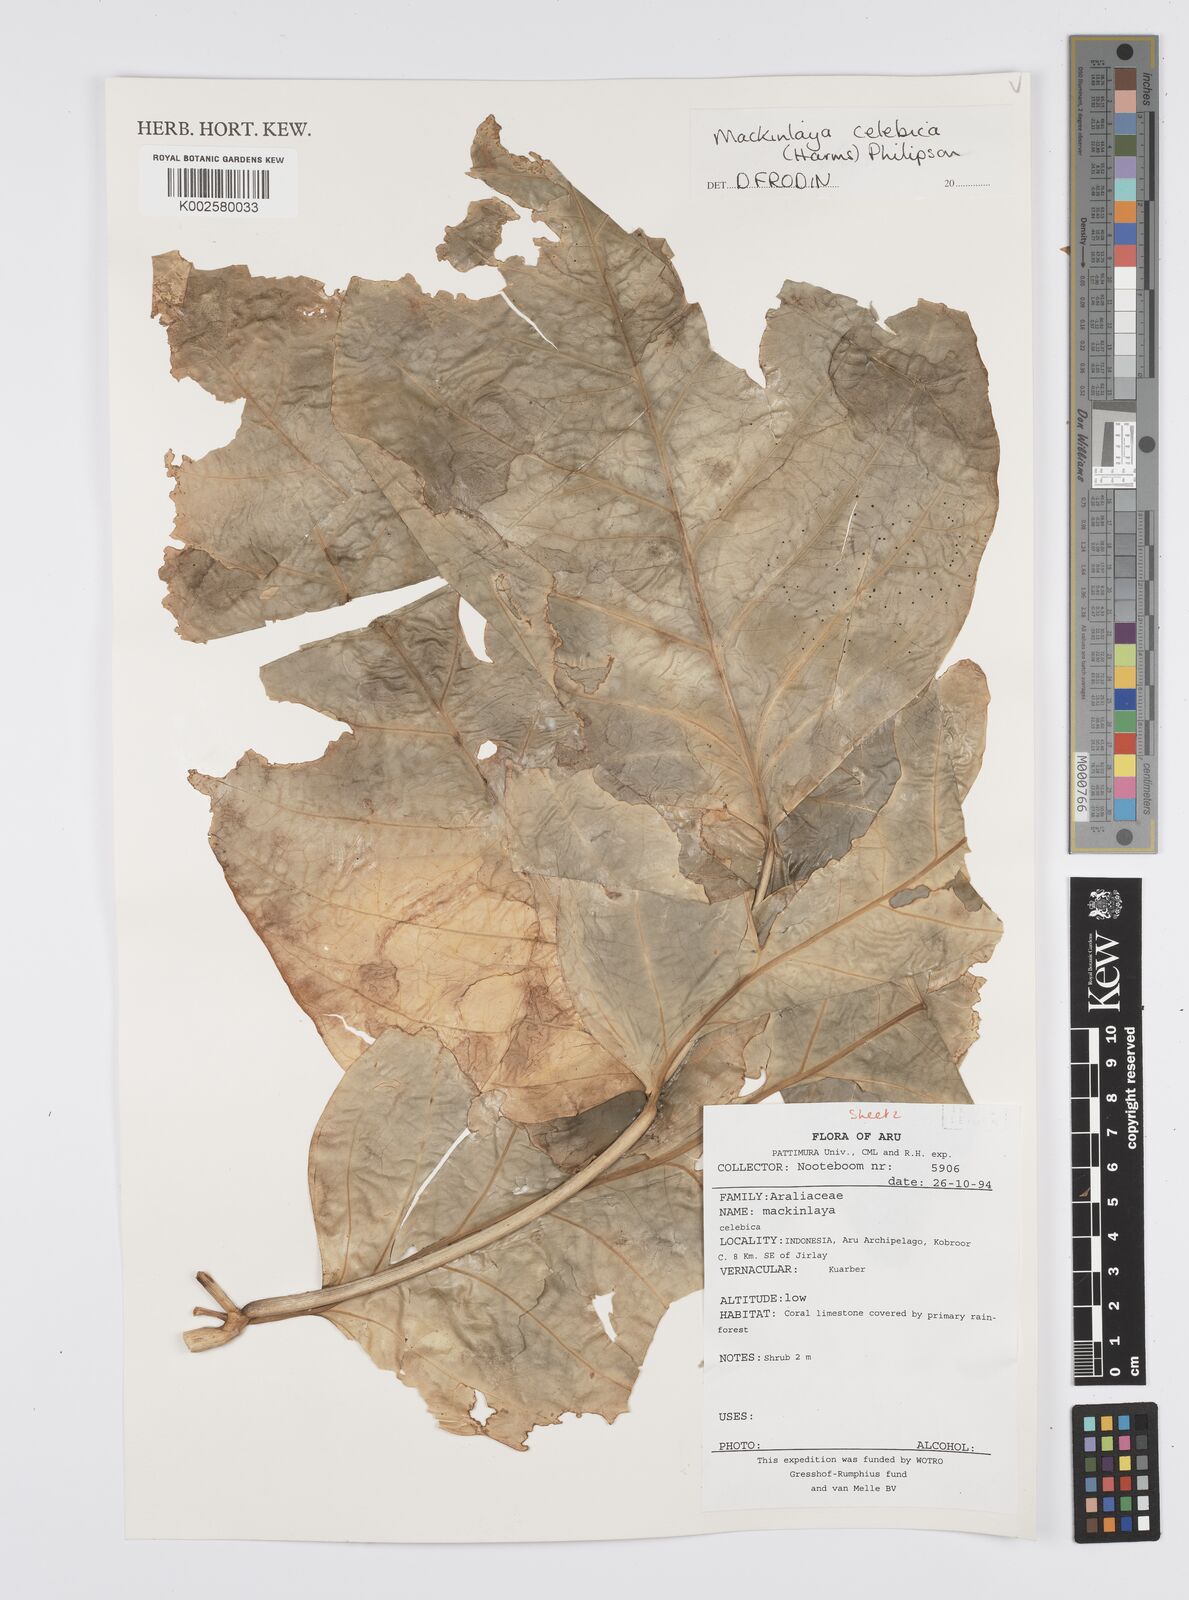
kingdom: Plantae
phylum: Tracheophyta
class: Magnoliopsida
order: Apiales
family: Apiaceae
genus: Mackinlaya
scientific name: Mackinlaya celebica
